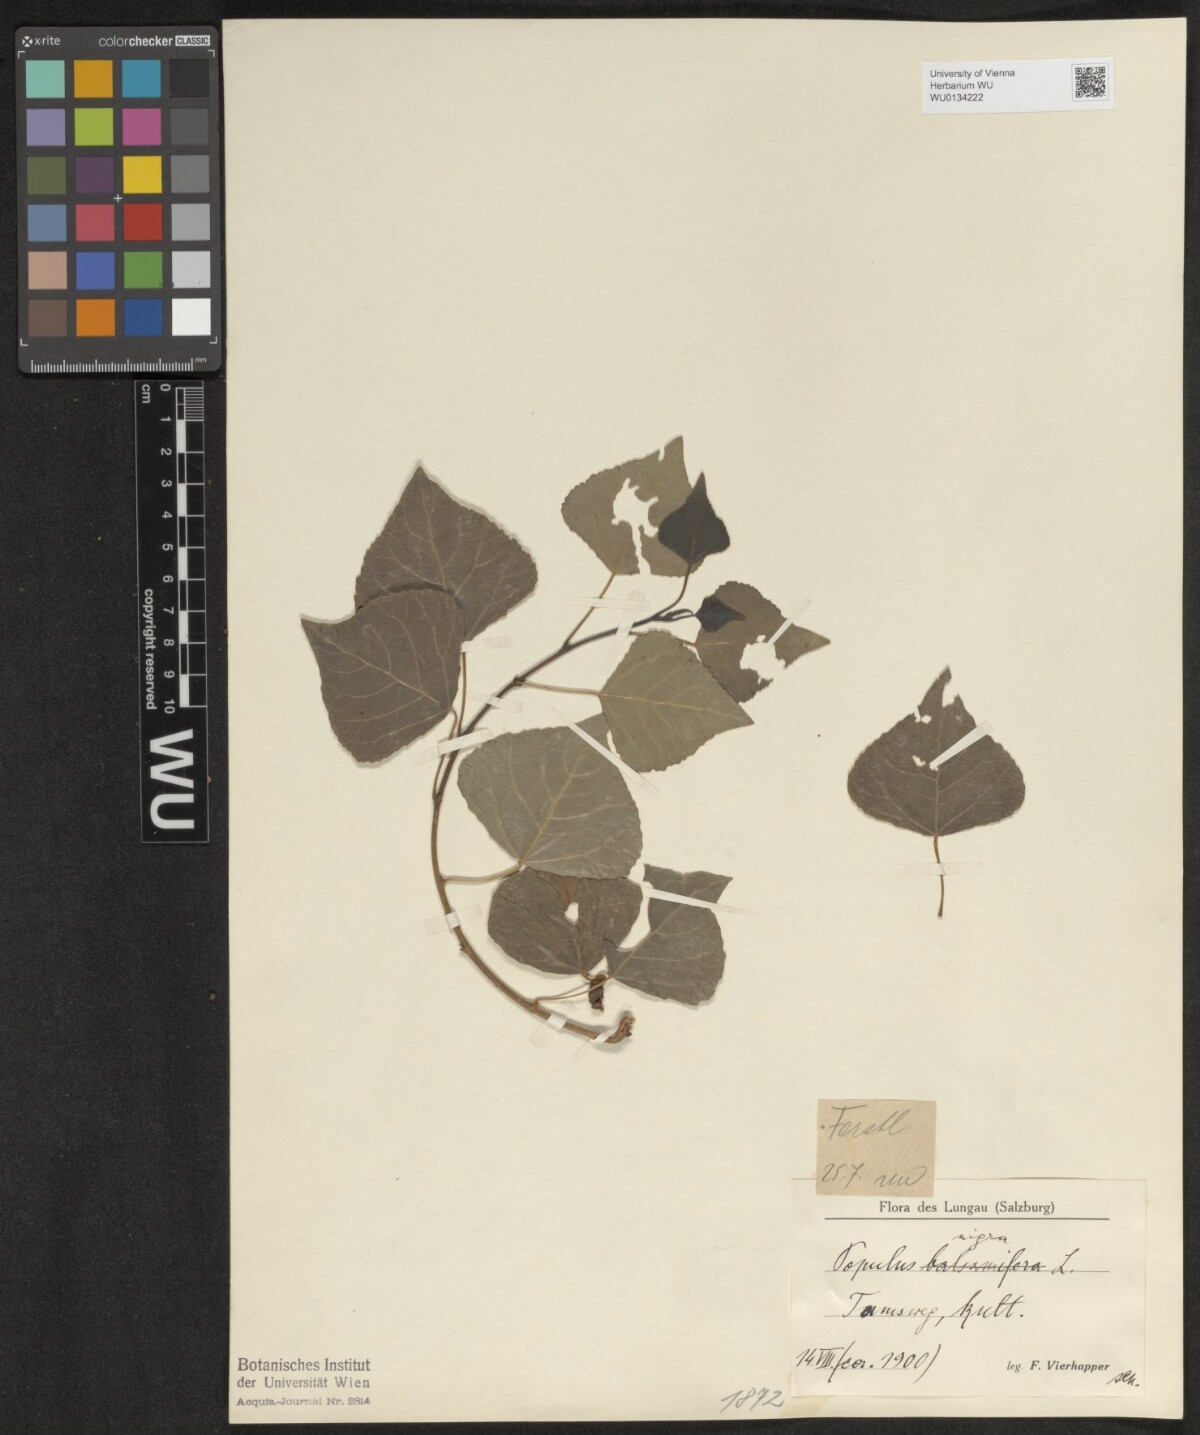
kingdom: Plantae
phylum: Tracheophyta
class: Magnoliopsida
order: Malpighiales
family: Salicaceae
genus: Populus
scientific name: Populus nigra
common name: Black poplar
